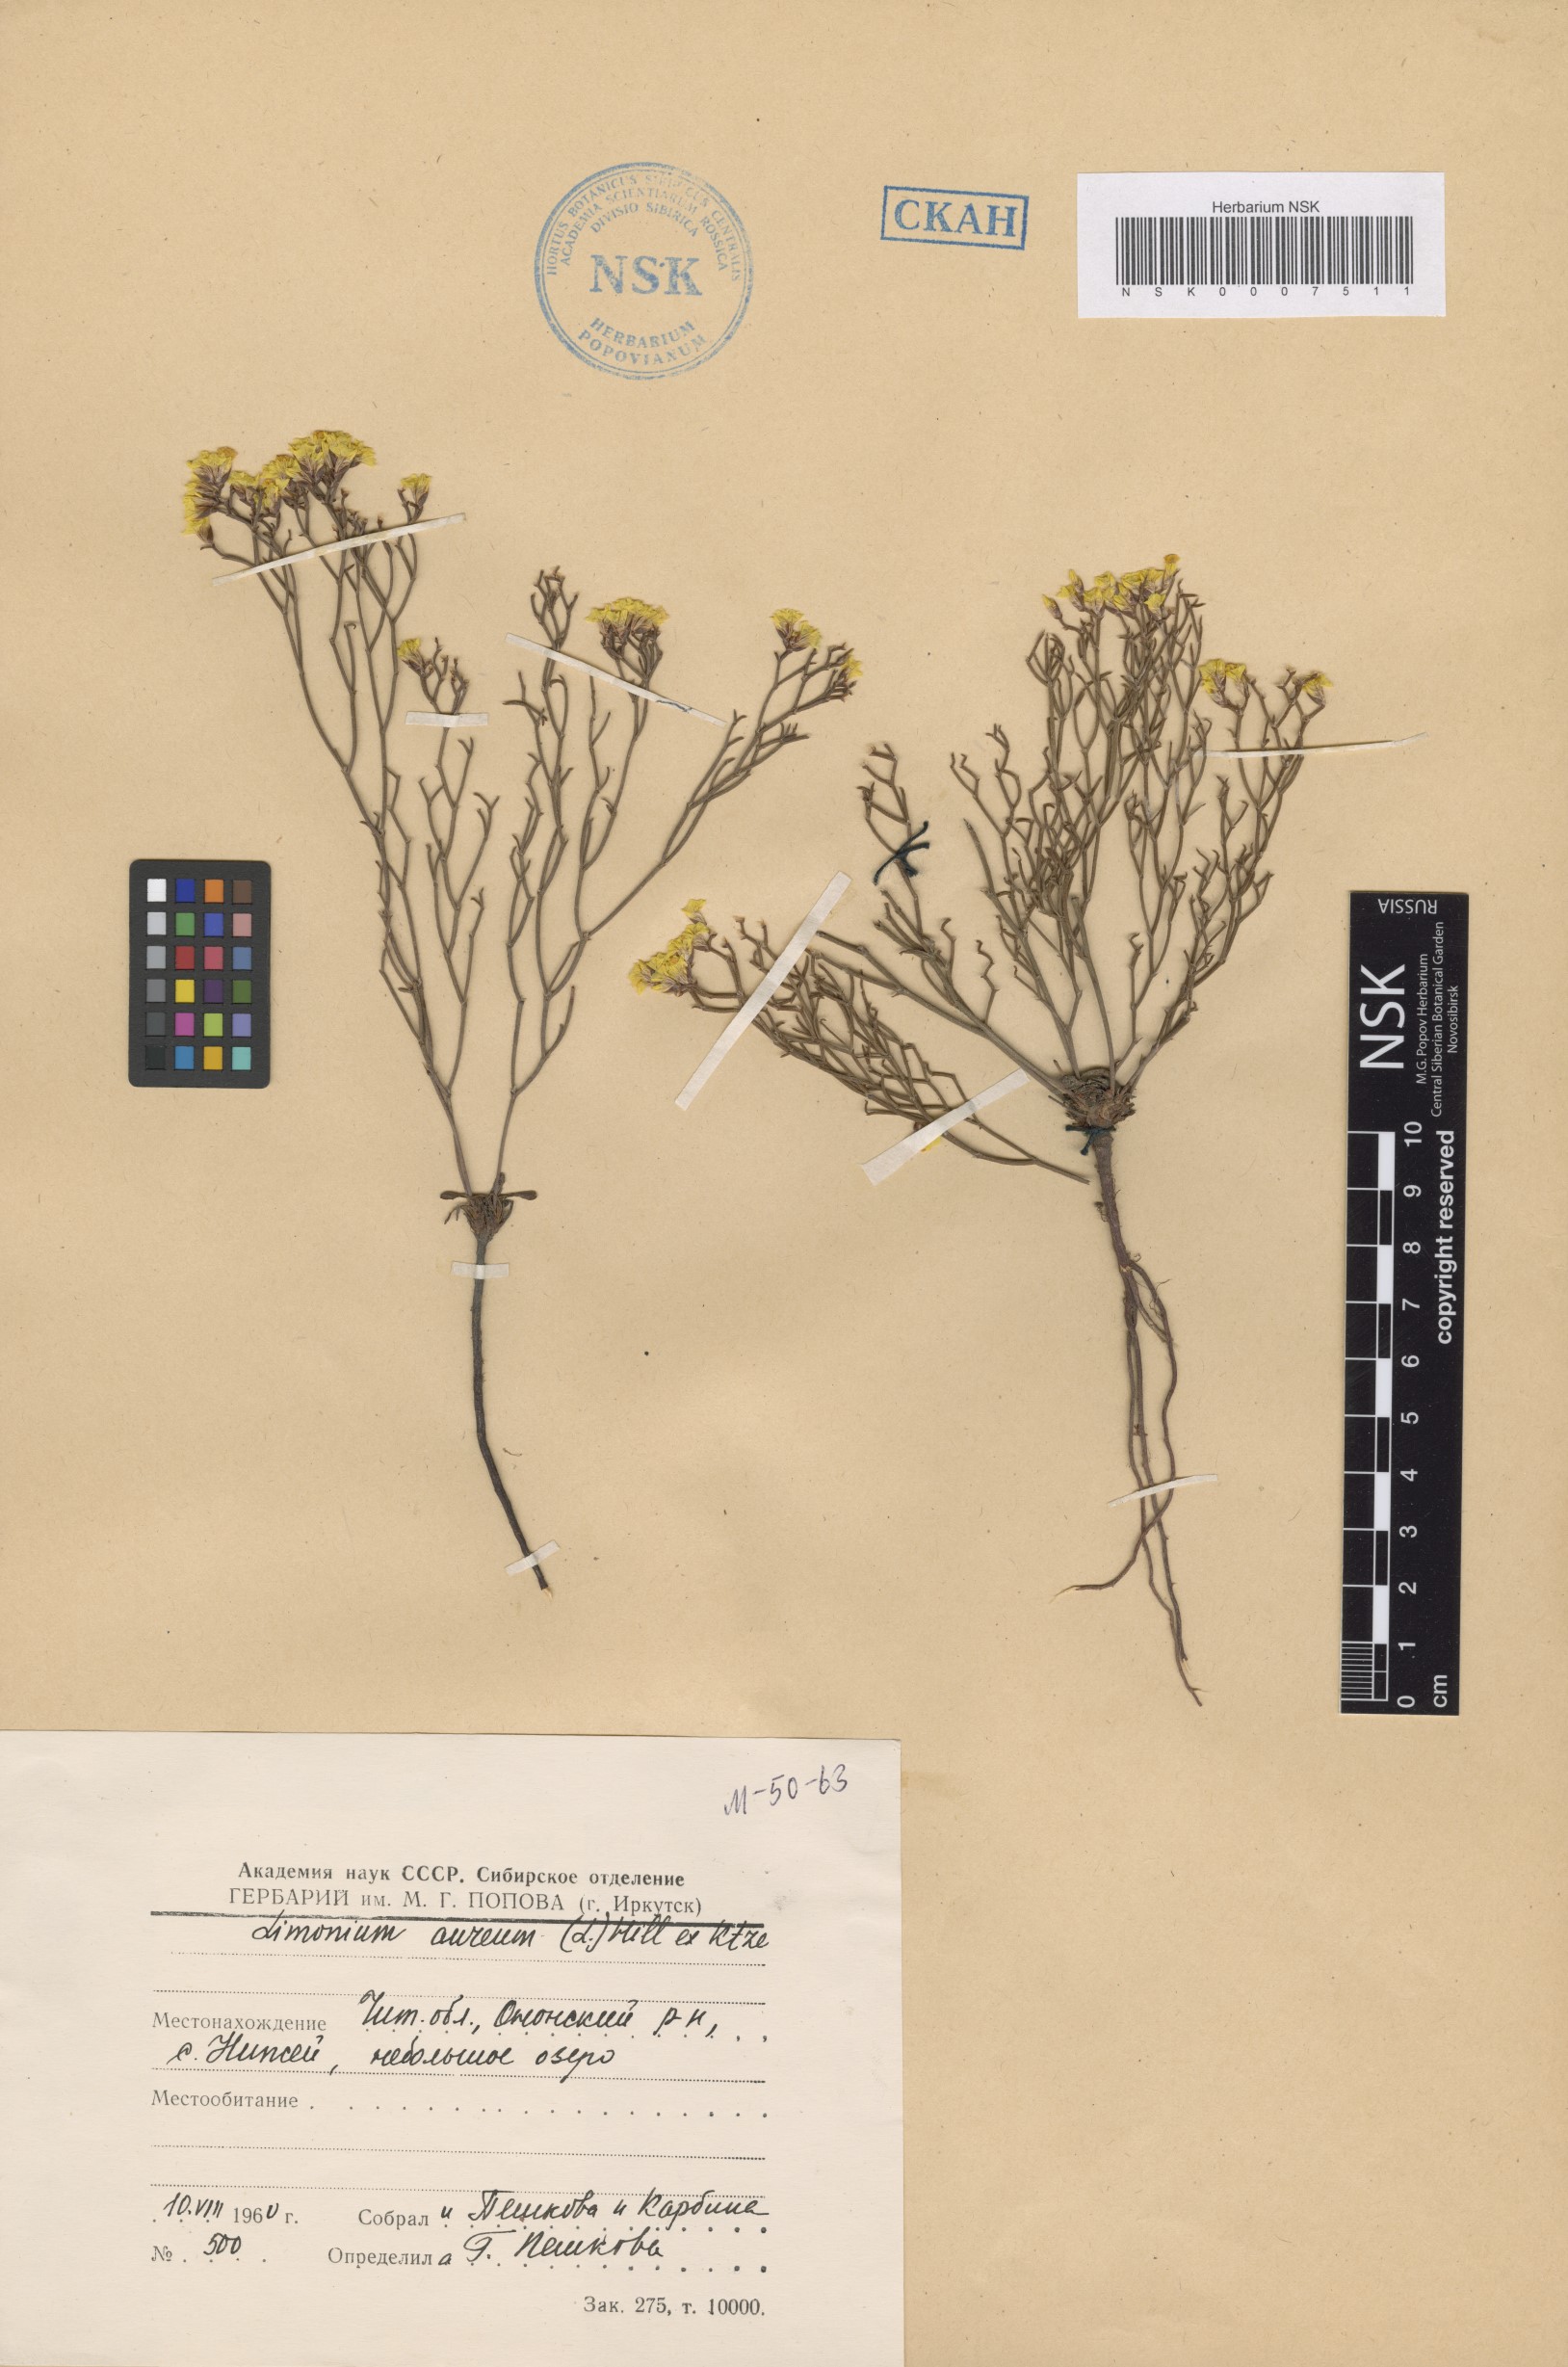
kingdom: Plantae
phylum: Tracheophyta
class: Magnoliopsida
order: Caryophyllales
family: Plumbaginaceae
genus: Limonium
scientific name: Limonium aureum
